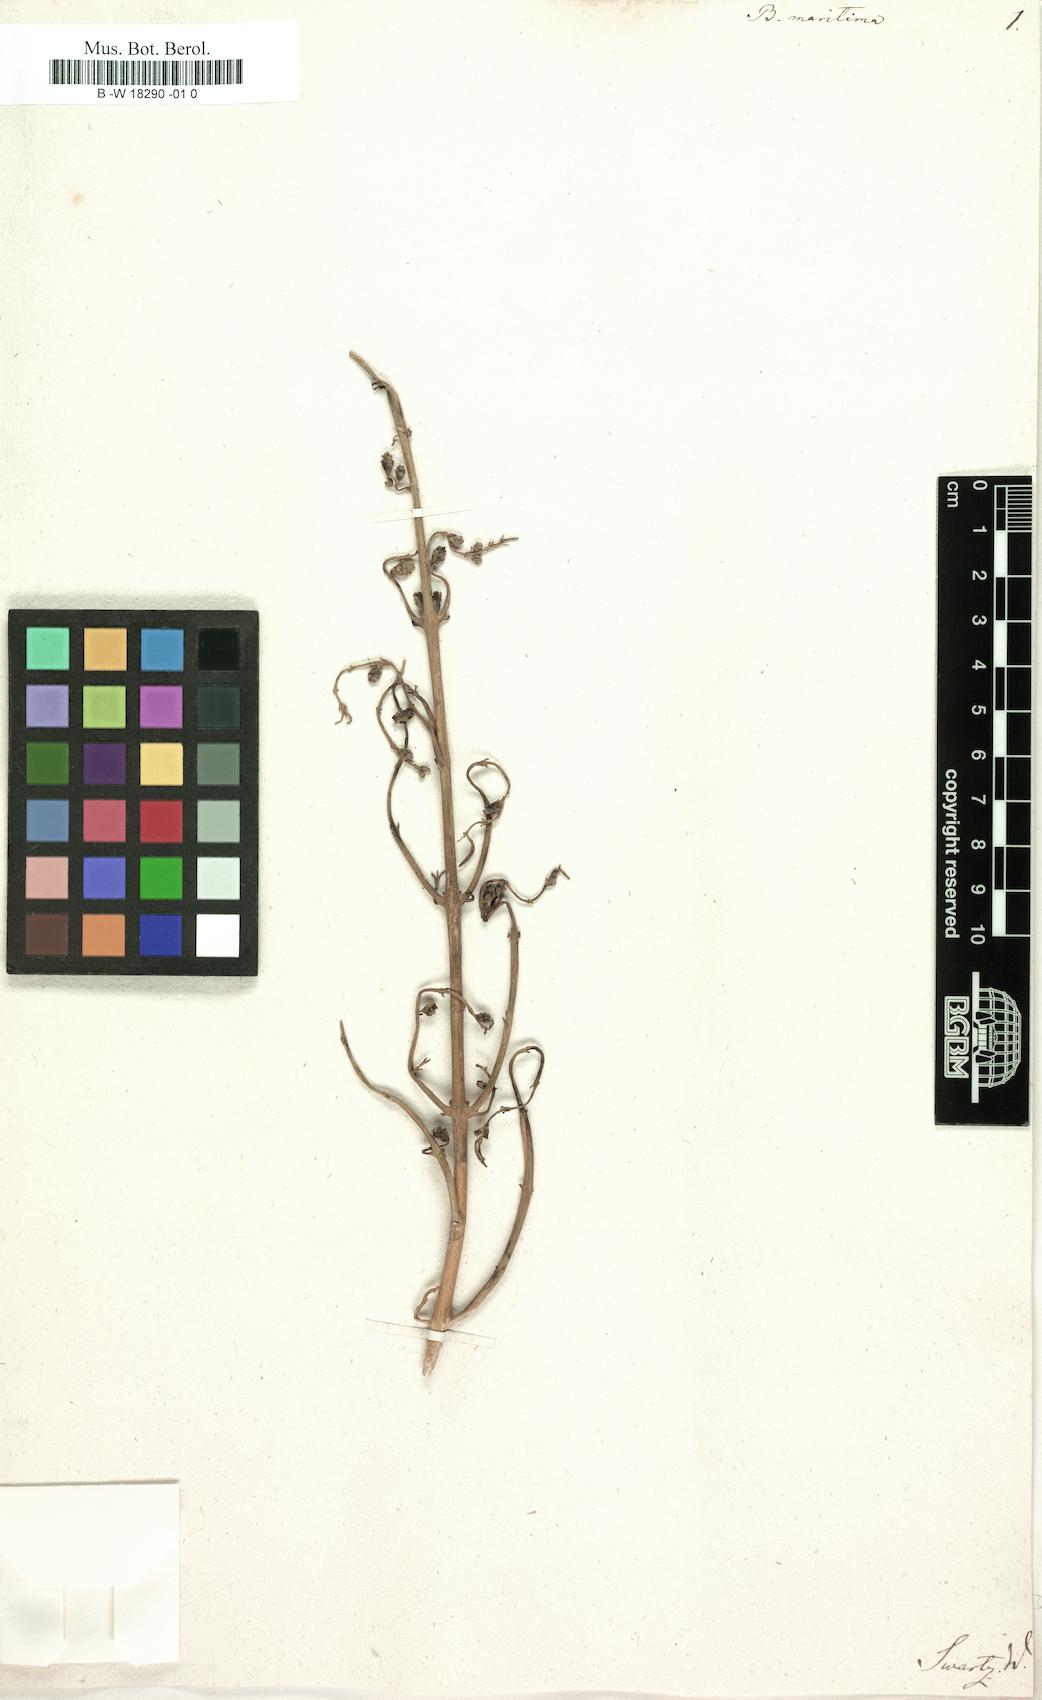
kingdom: Plantae
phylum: Tracheophyta
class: Magnoliopsida
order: Brassicales
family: Bataceae
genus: Batis
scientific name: Batis maritima
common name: Turtleweed
